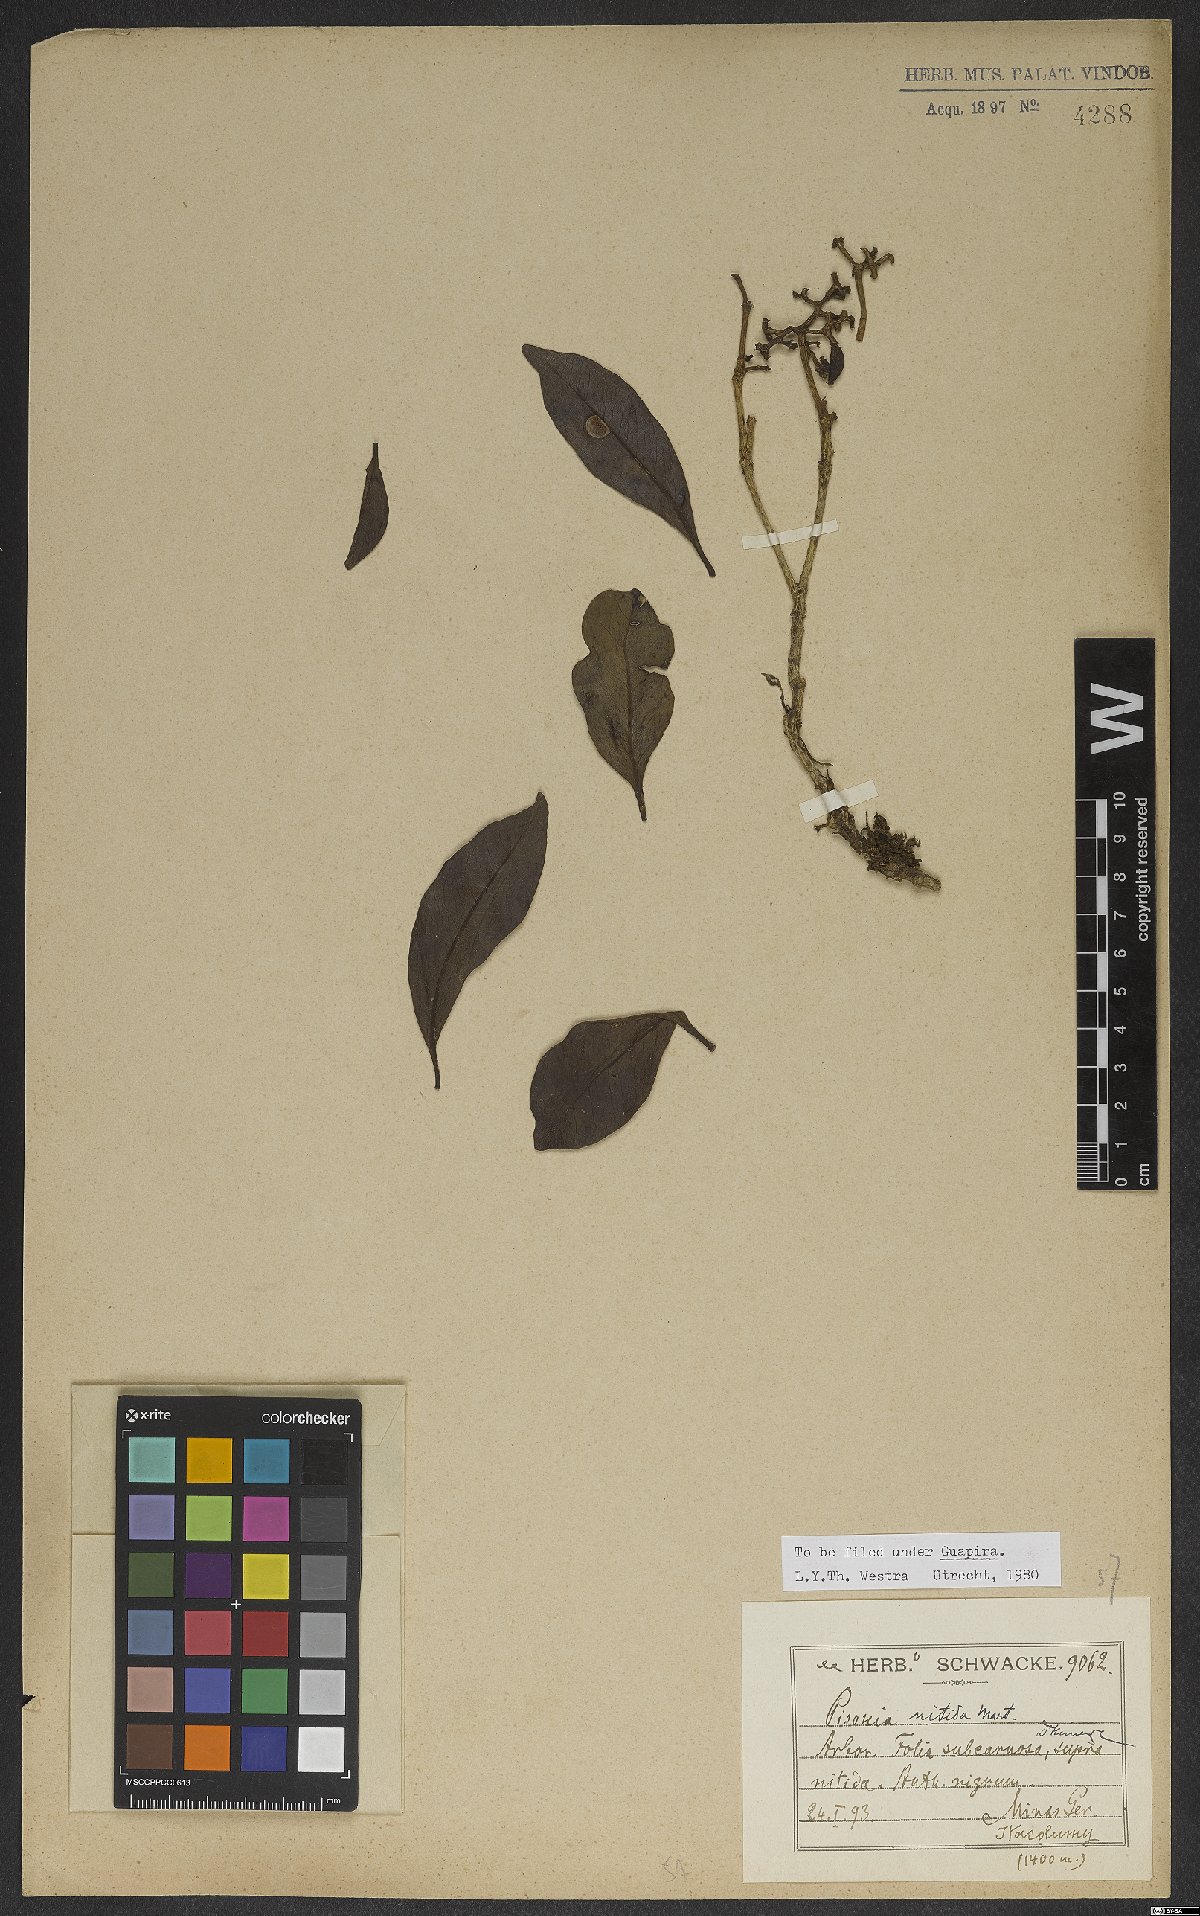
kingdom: Plantae
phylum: Tracheophyta
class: Magnoliopsida
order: Caryophyllales
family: Nyctaginaceae
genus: Guapira
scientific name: Guapira nitida
